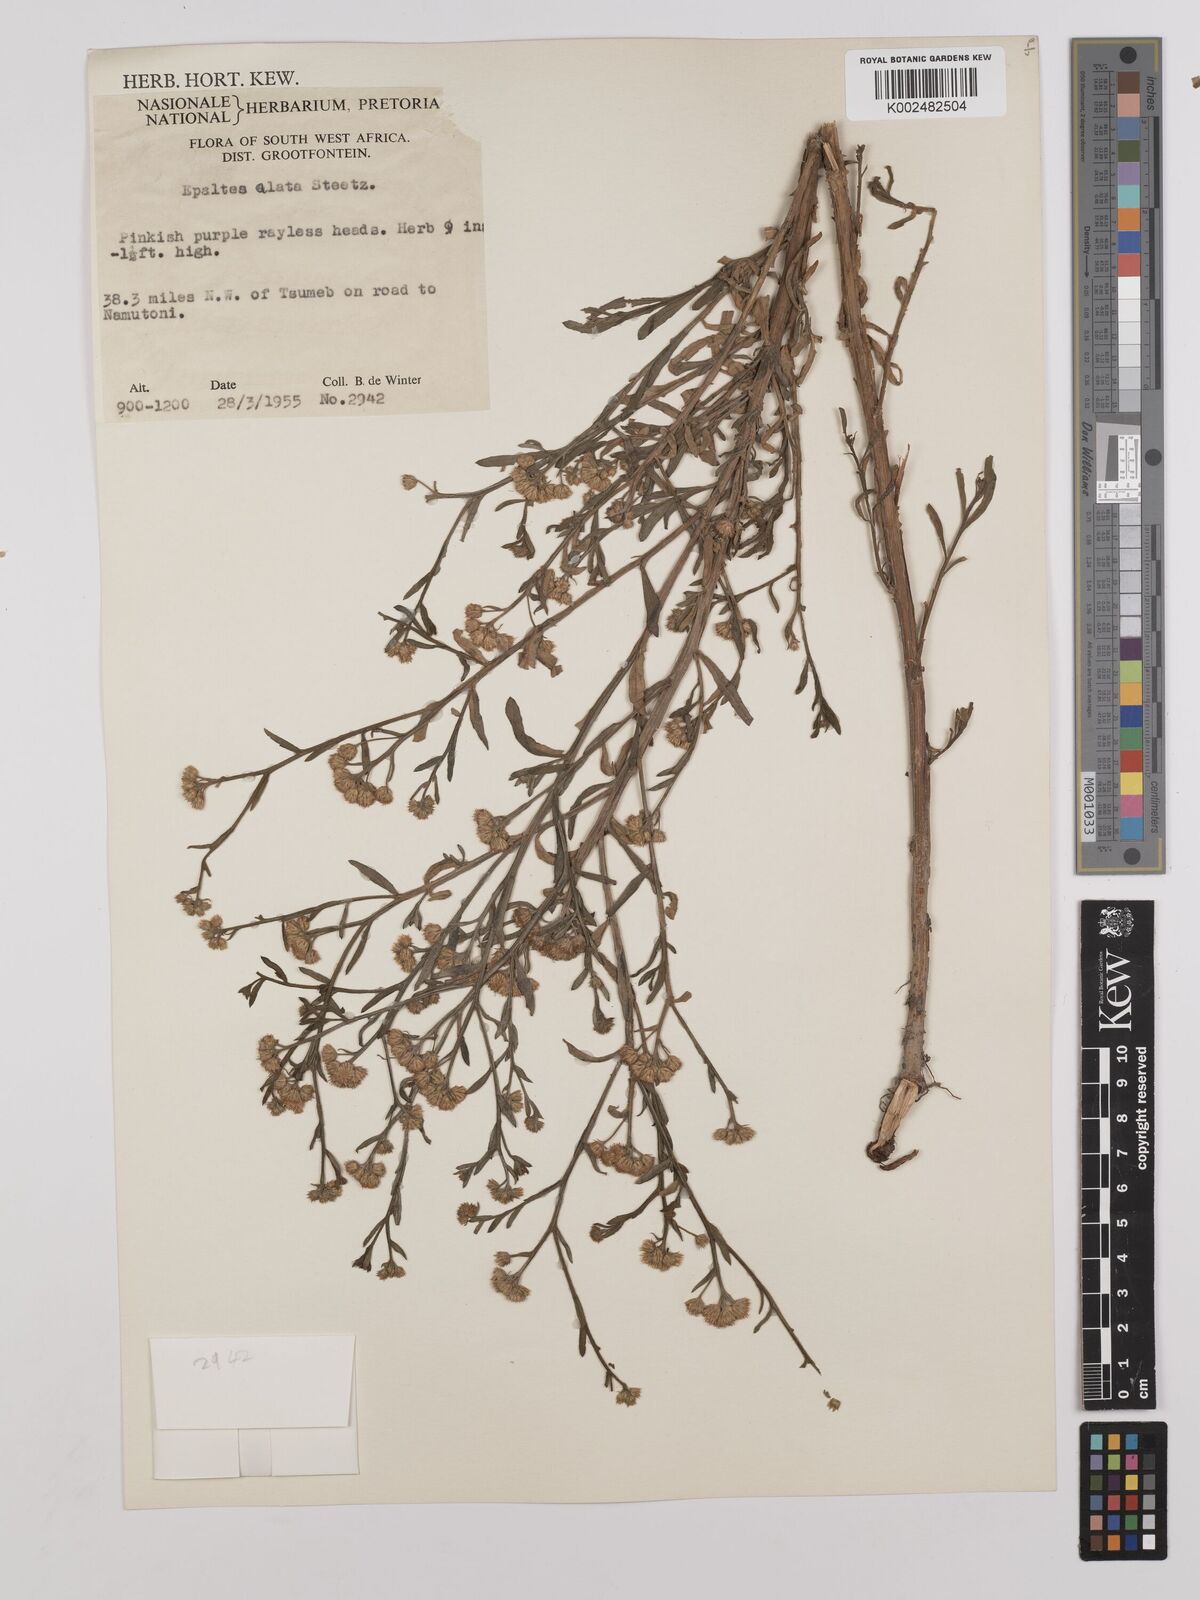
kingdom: Plantae
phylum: Tracheophyta
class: Magnoliopsida
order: Asterales
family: Asteraceae
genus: Litogyne
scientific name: Litogyne gariepina
